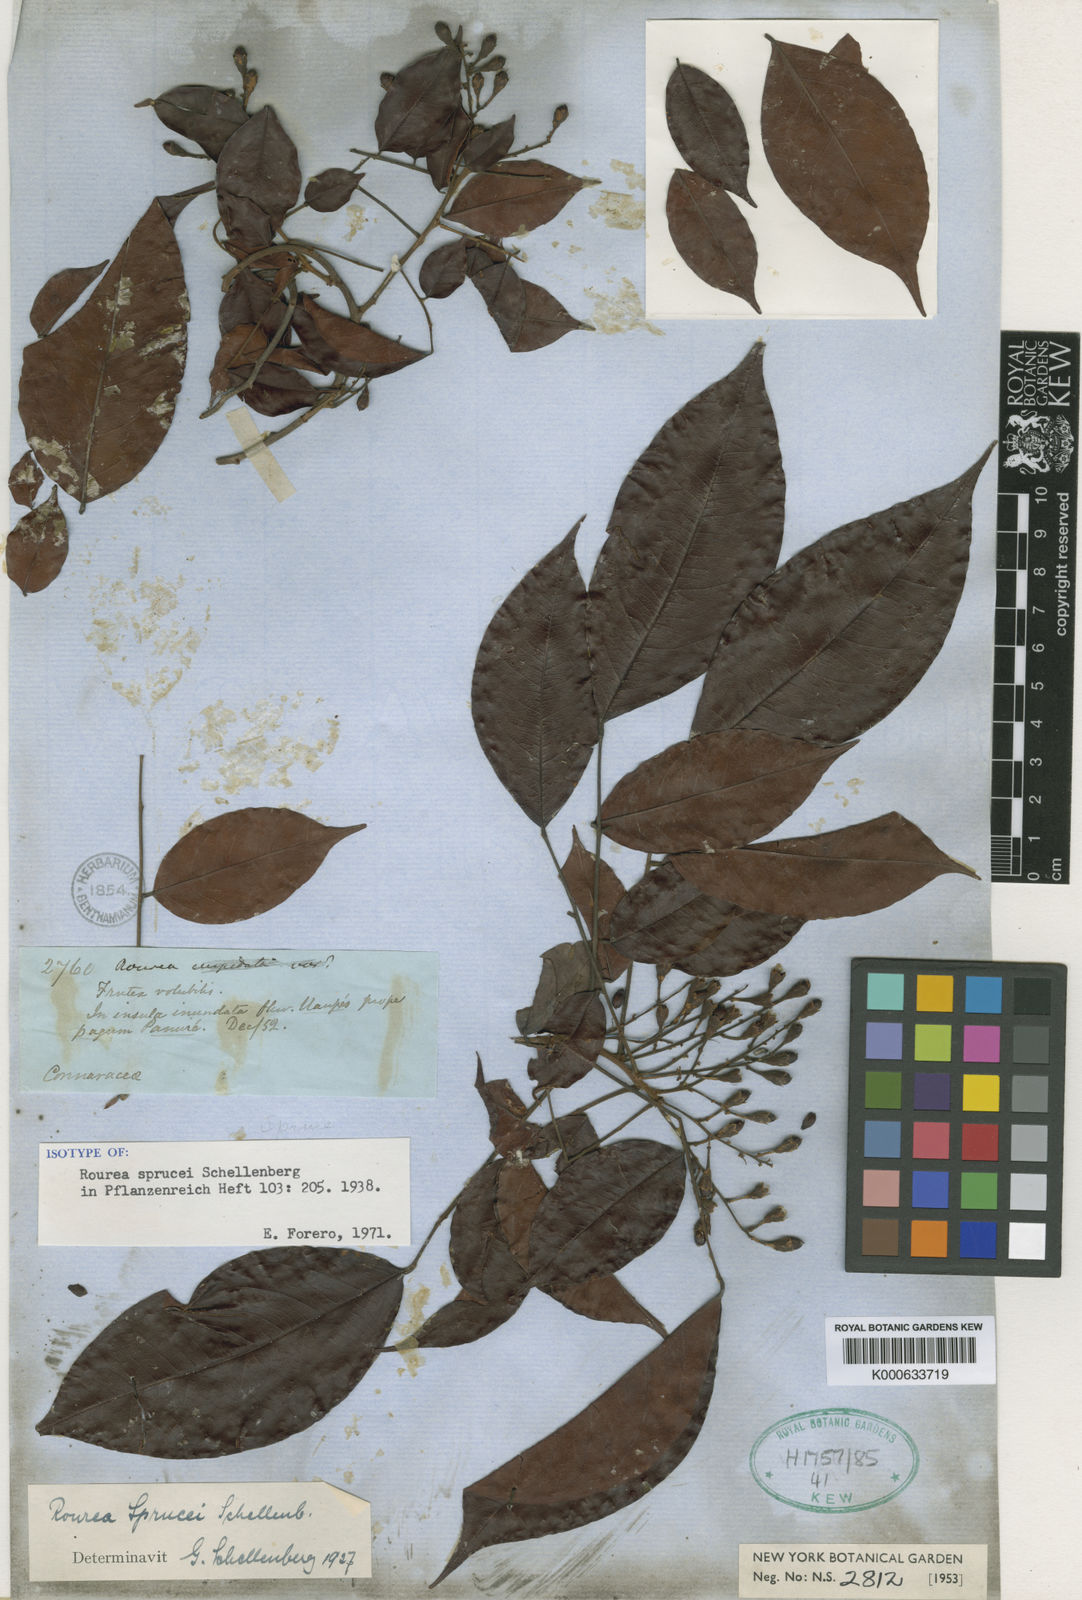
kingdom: Plantae
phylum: Tracheophyta
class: Magnoliopsida
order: Oxalidales
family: Connaraceae
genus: Rourea
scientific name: Rourea sprucei
